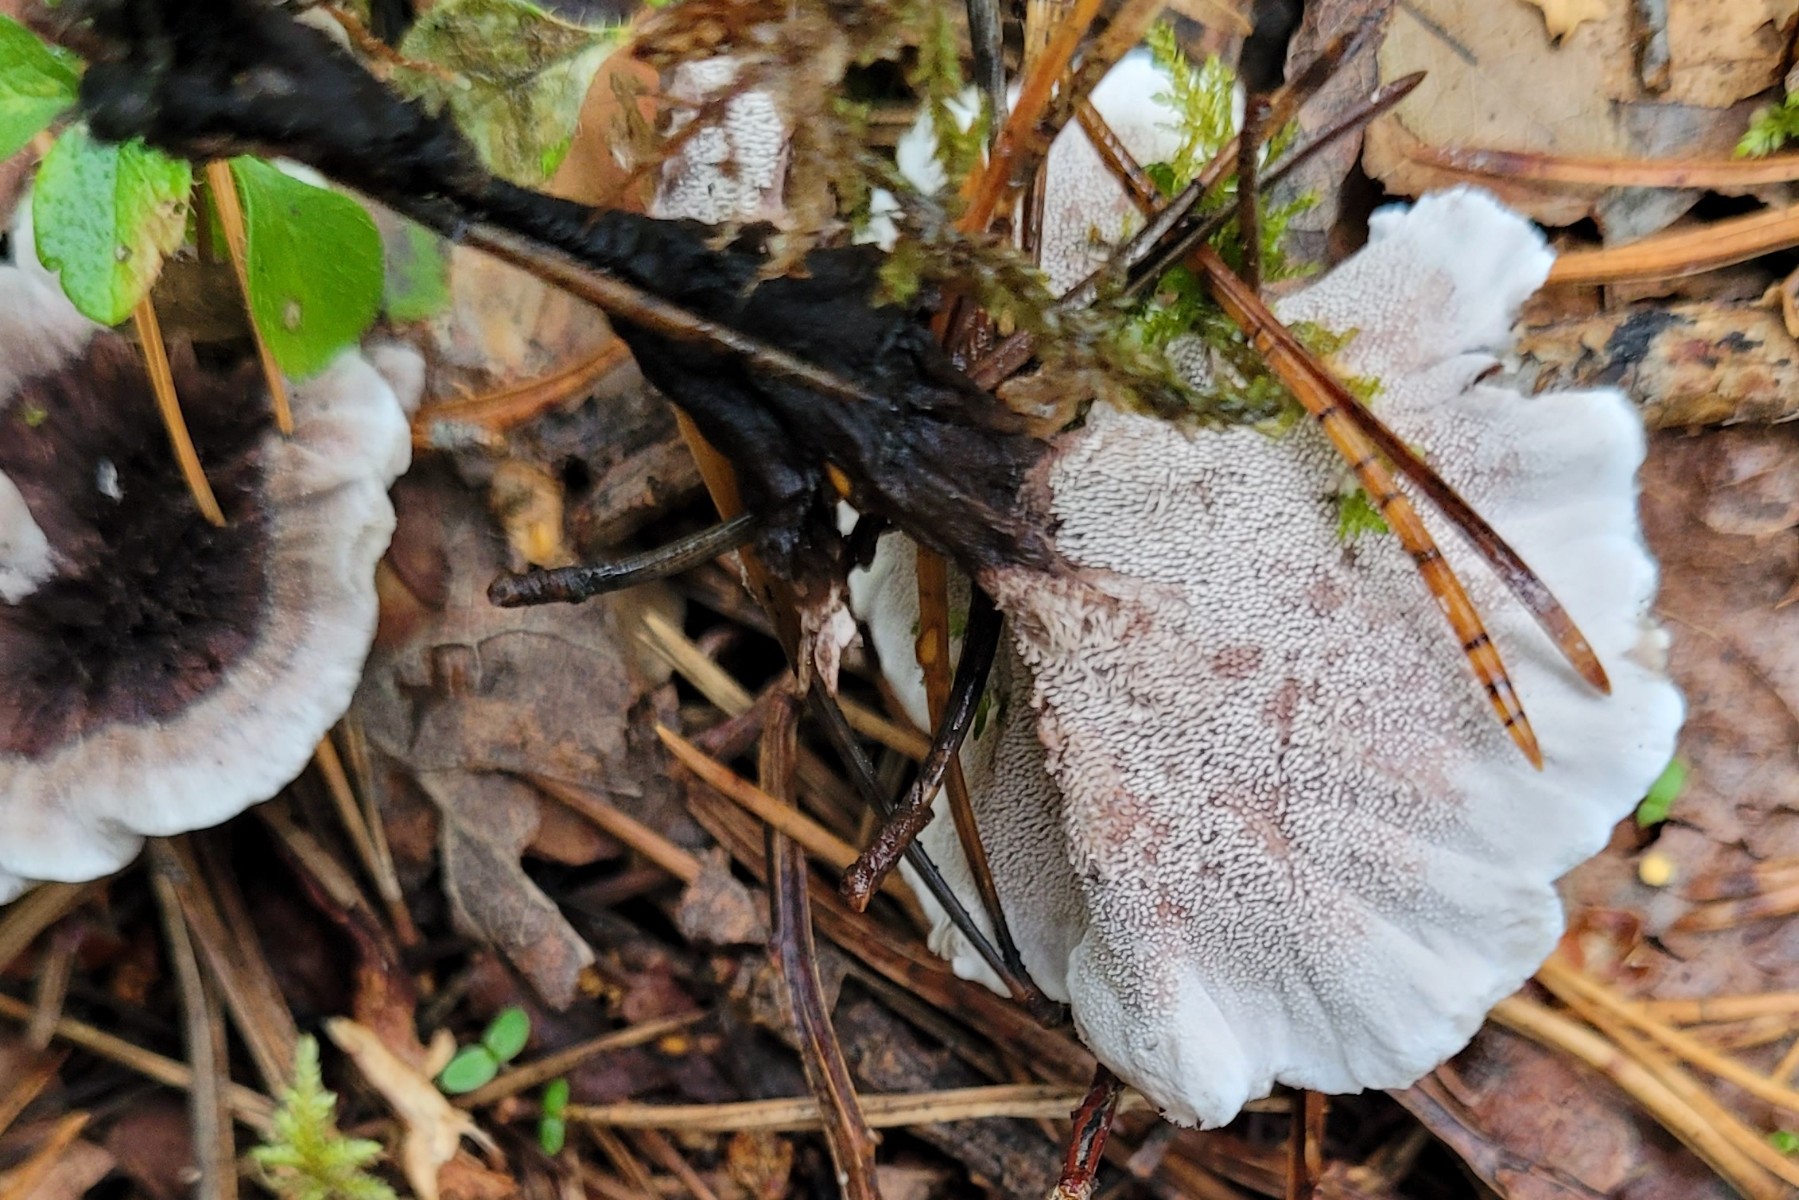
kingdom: Fungi
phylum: Basidiomycota
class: Agaricomycetes
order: Thelephorales
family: Thelephoraceae
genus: Phellodon
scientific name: Phellodon tomentosus
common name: vellugtende duftpigsvamp
